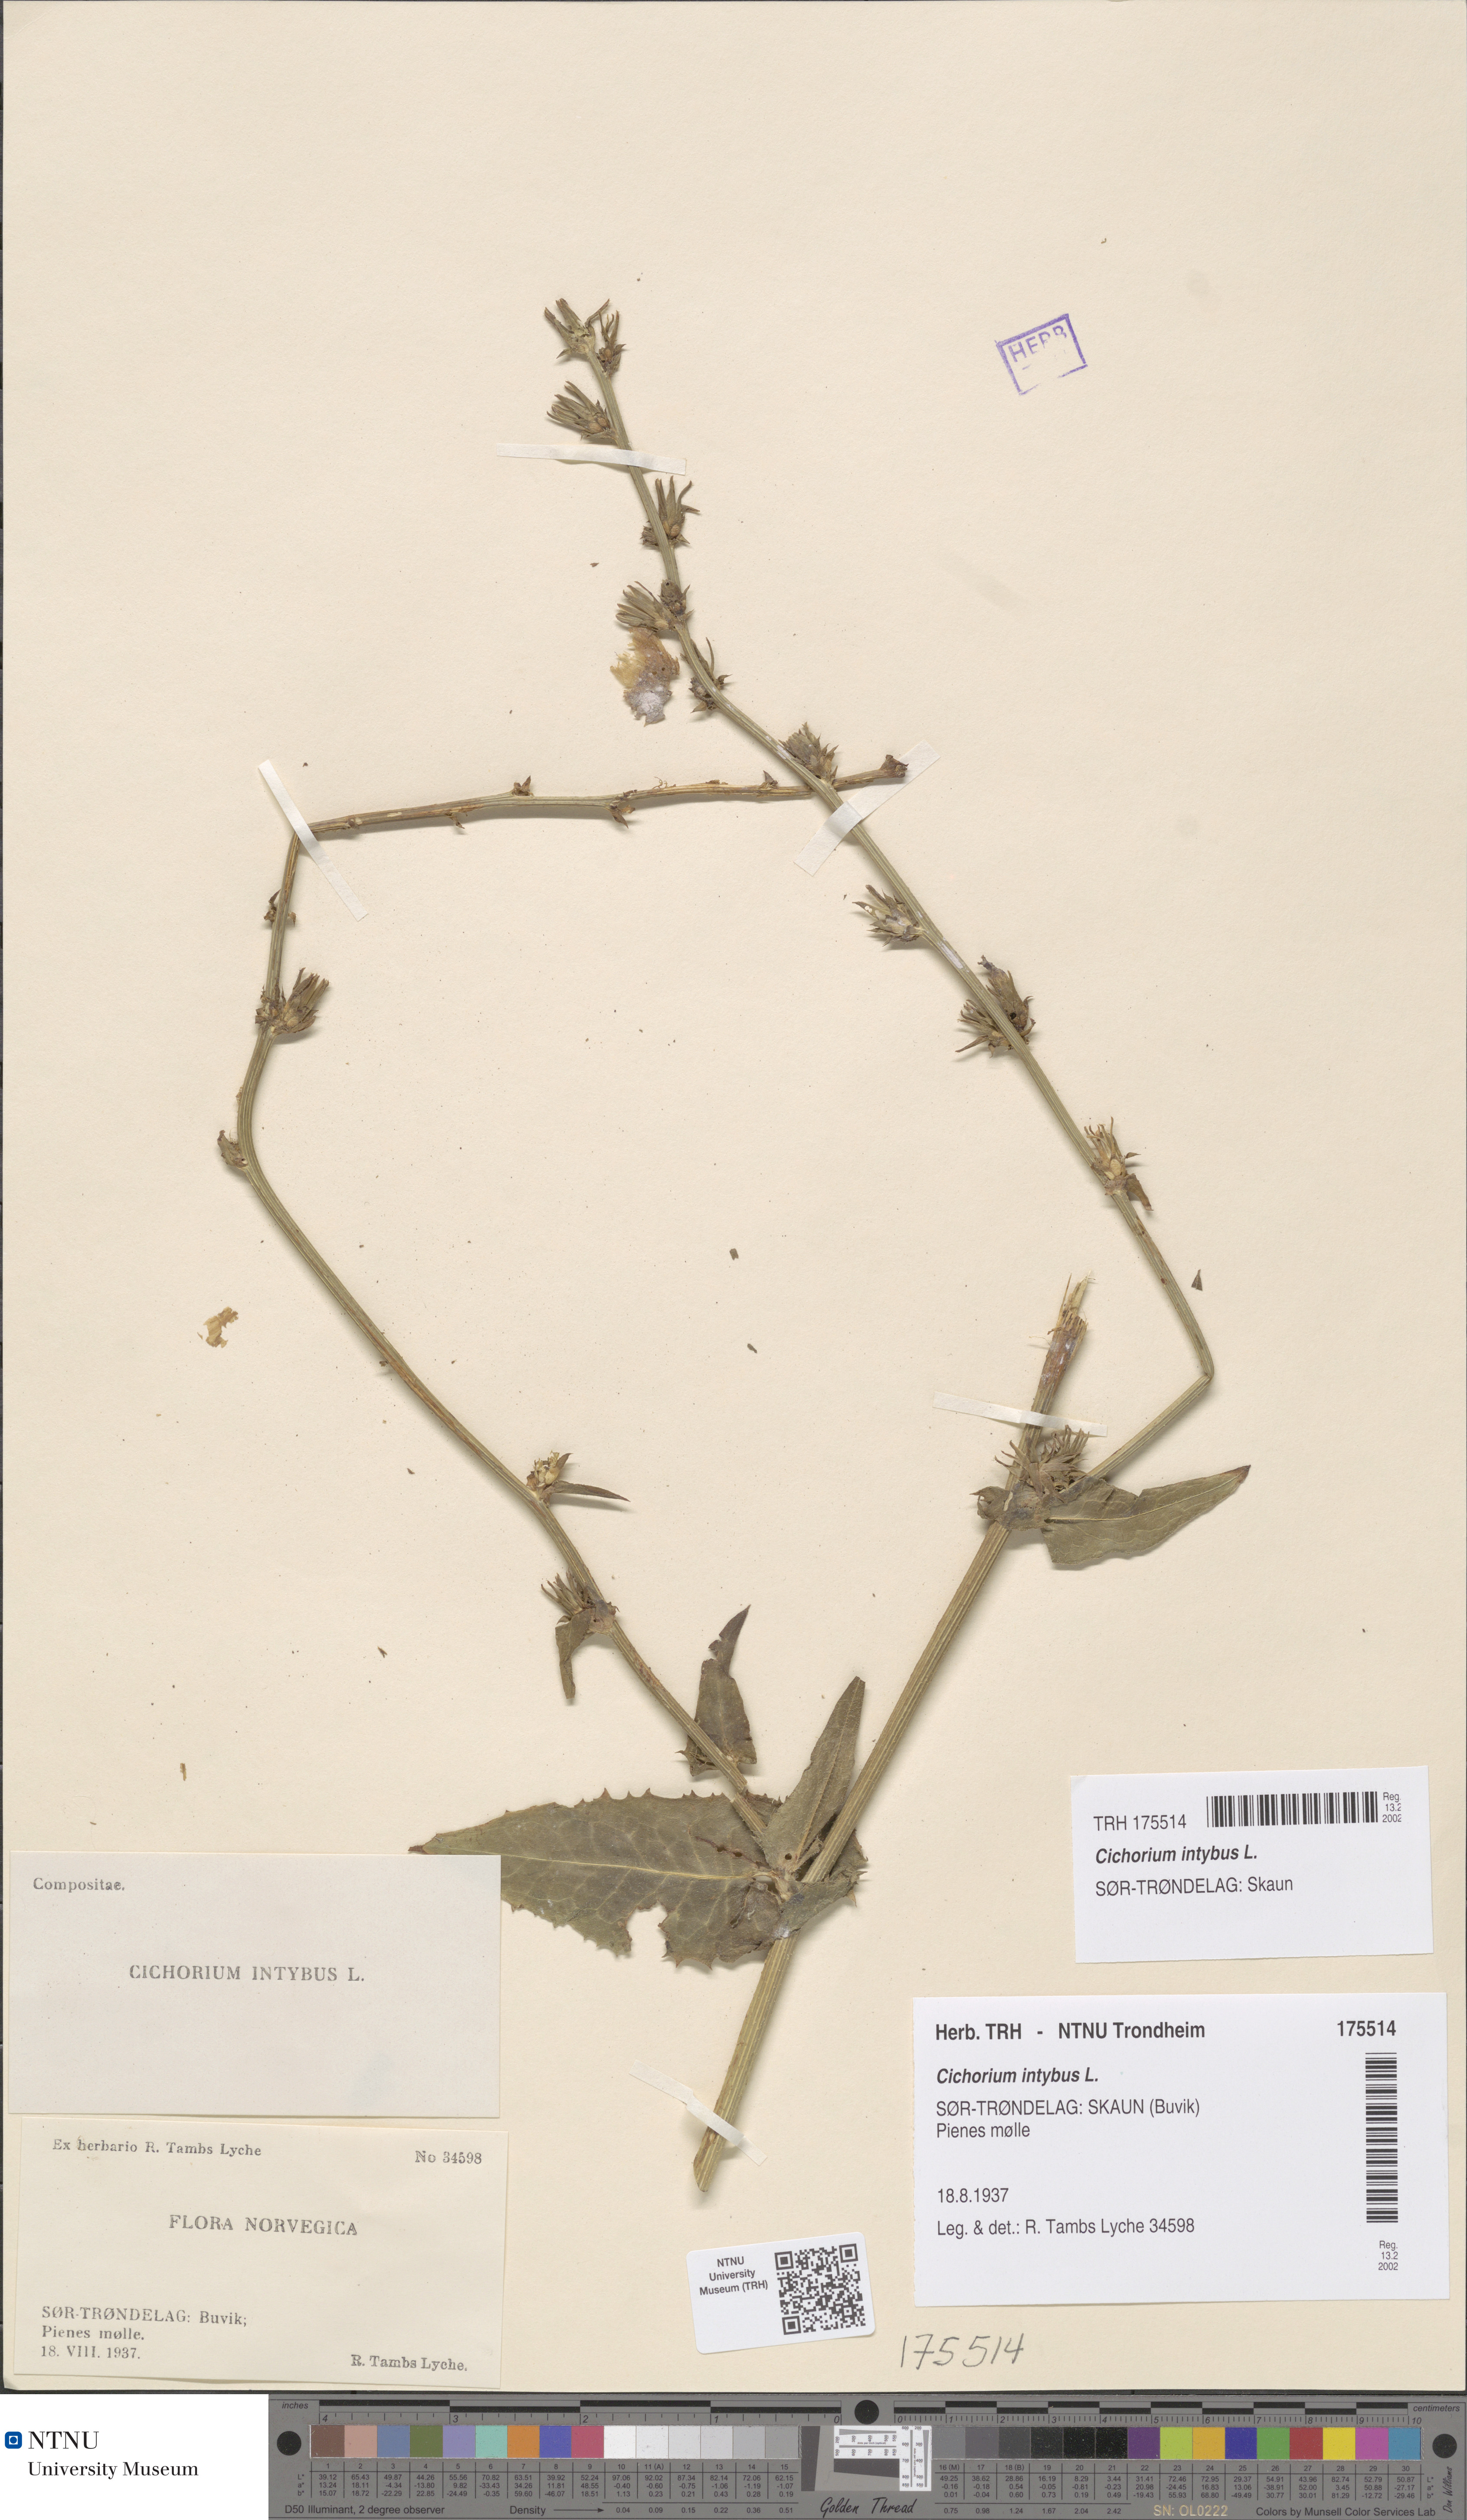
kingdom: Plantae
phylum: Tracheophyta
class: Magnoliopsida
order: Asterales
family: Asteraceae
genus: Cichorium
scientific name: Cichorium intybus
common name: Chicory
